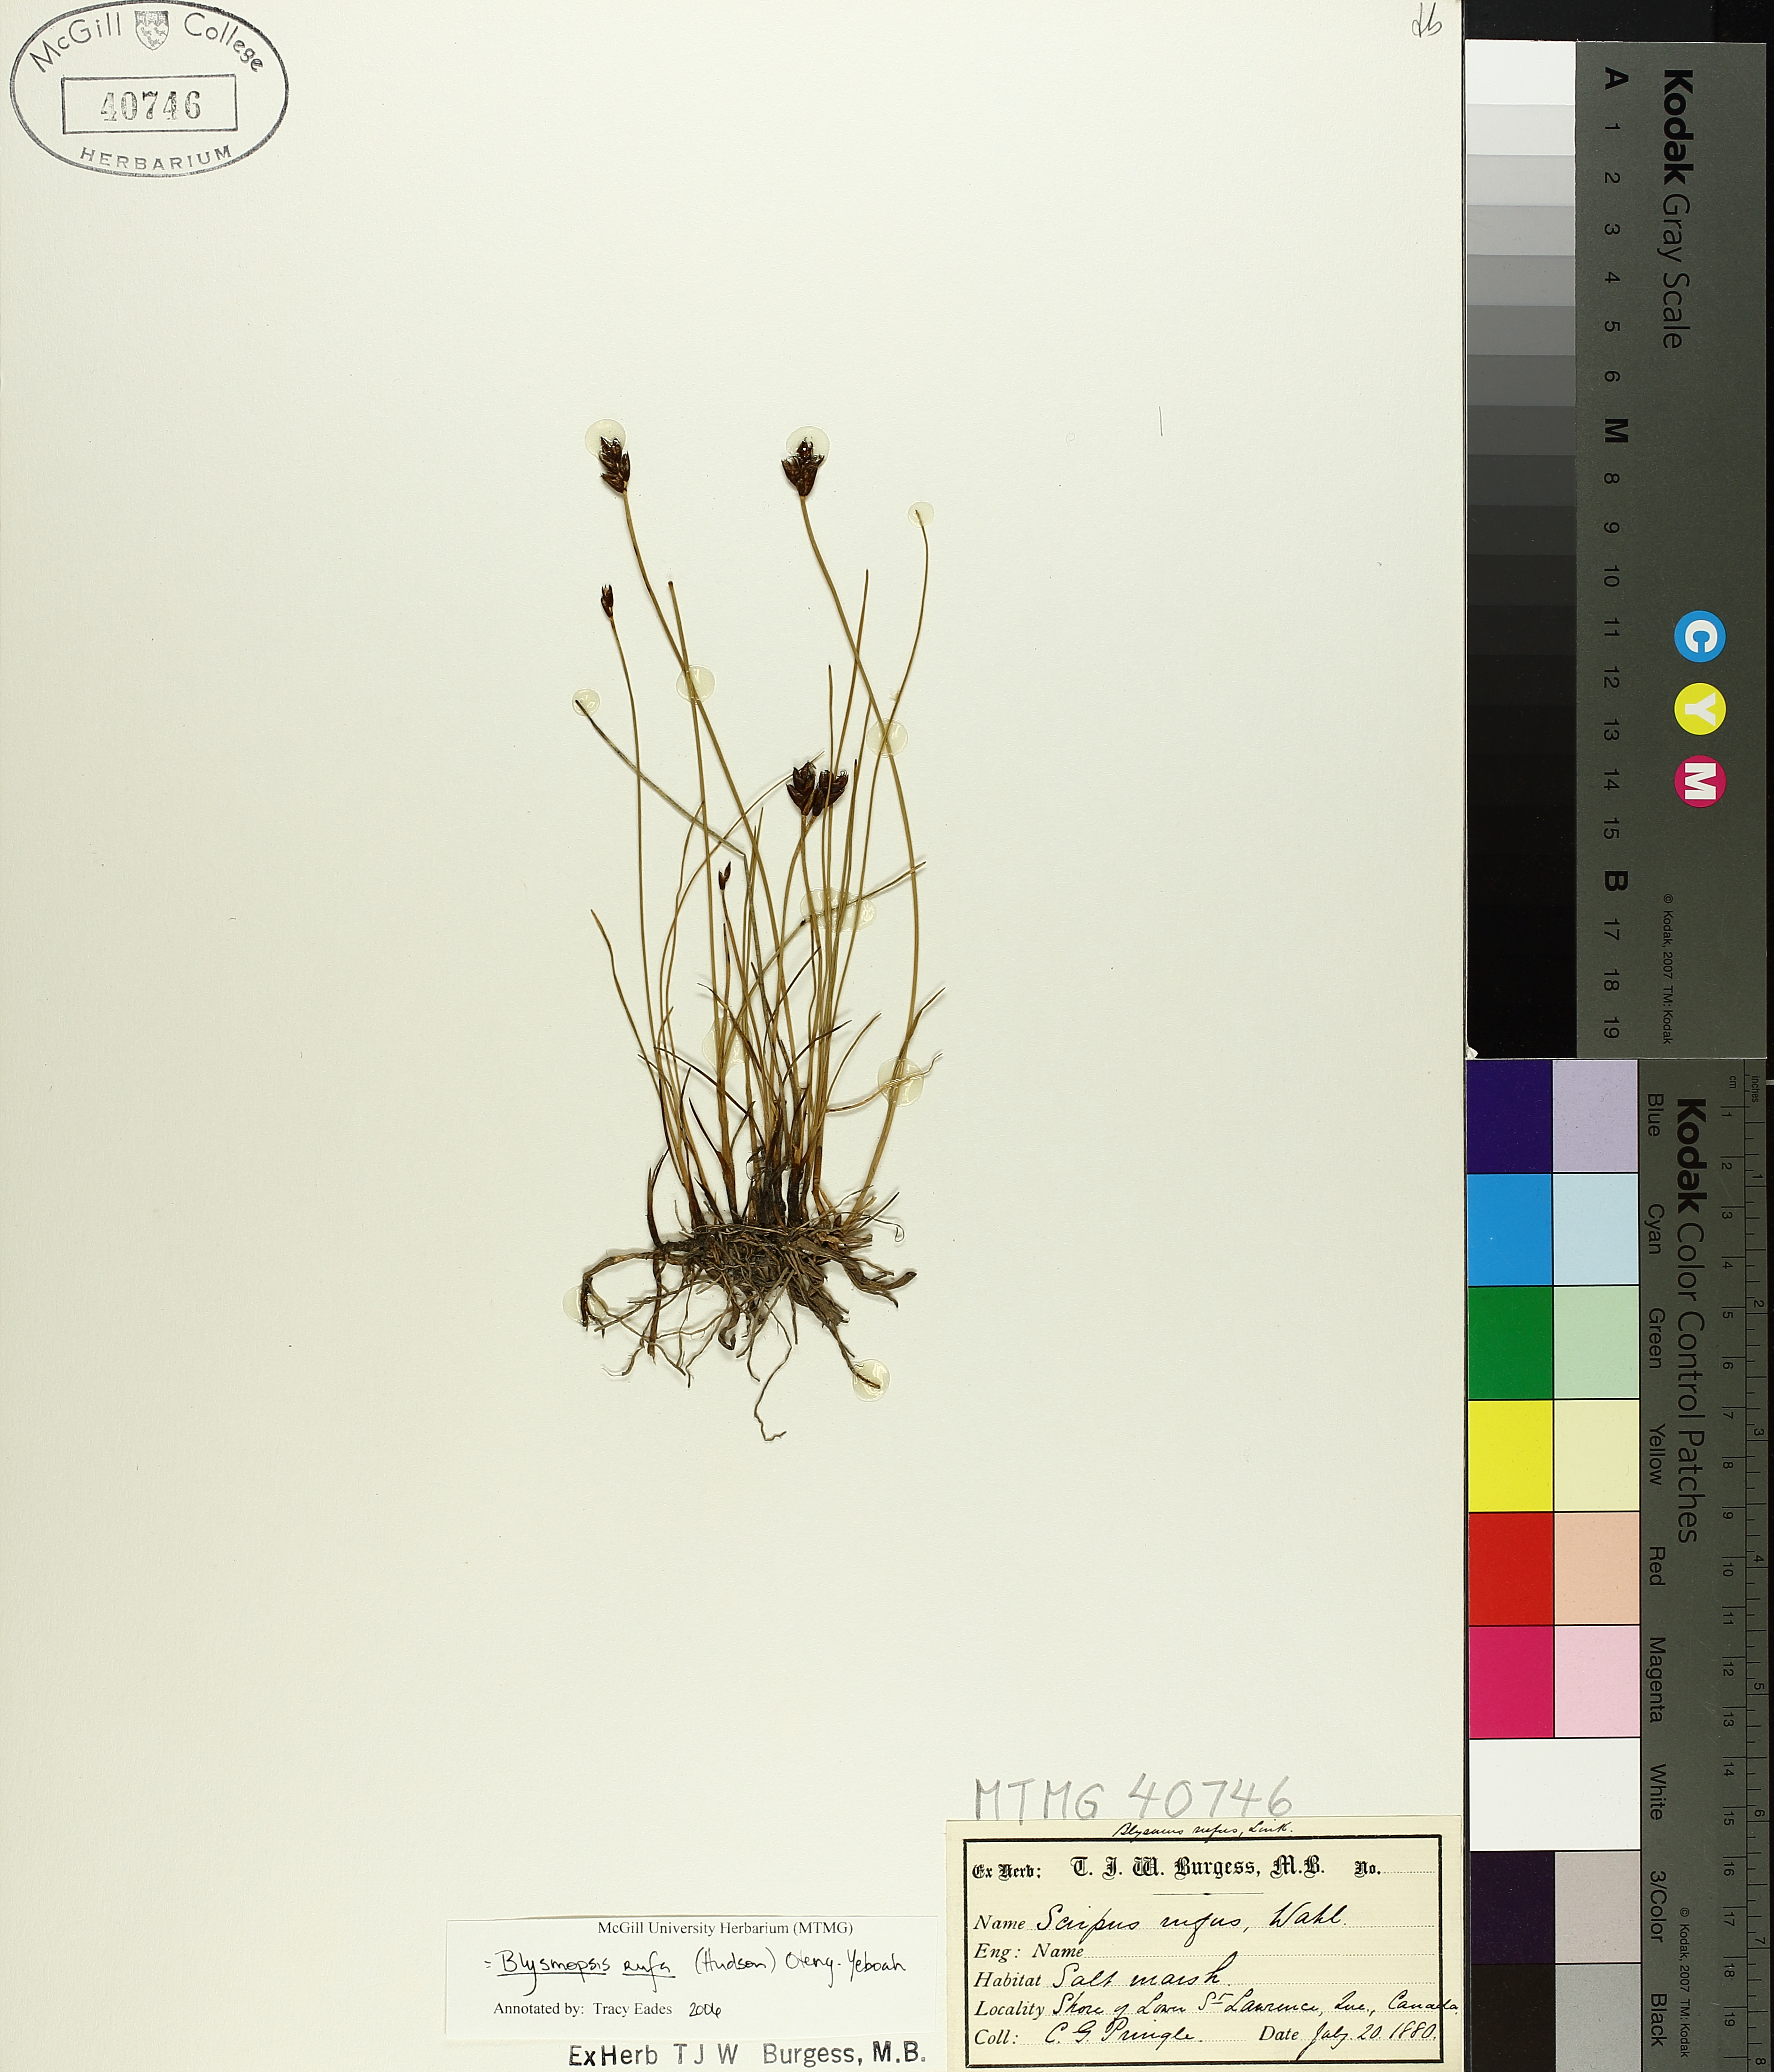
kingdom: Plantae
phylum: Tracheophyta
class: Liliopsida
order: Poales
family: Cyperaceae
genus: Blysmus
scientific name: Blysmus rufus
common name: Saltmarsh flat-sedge
